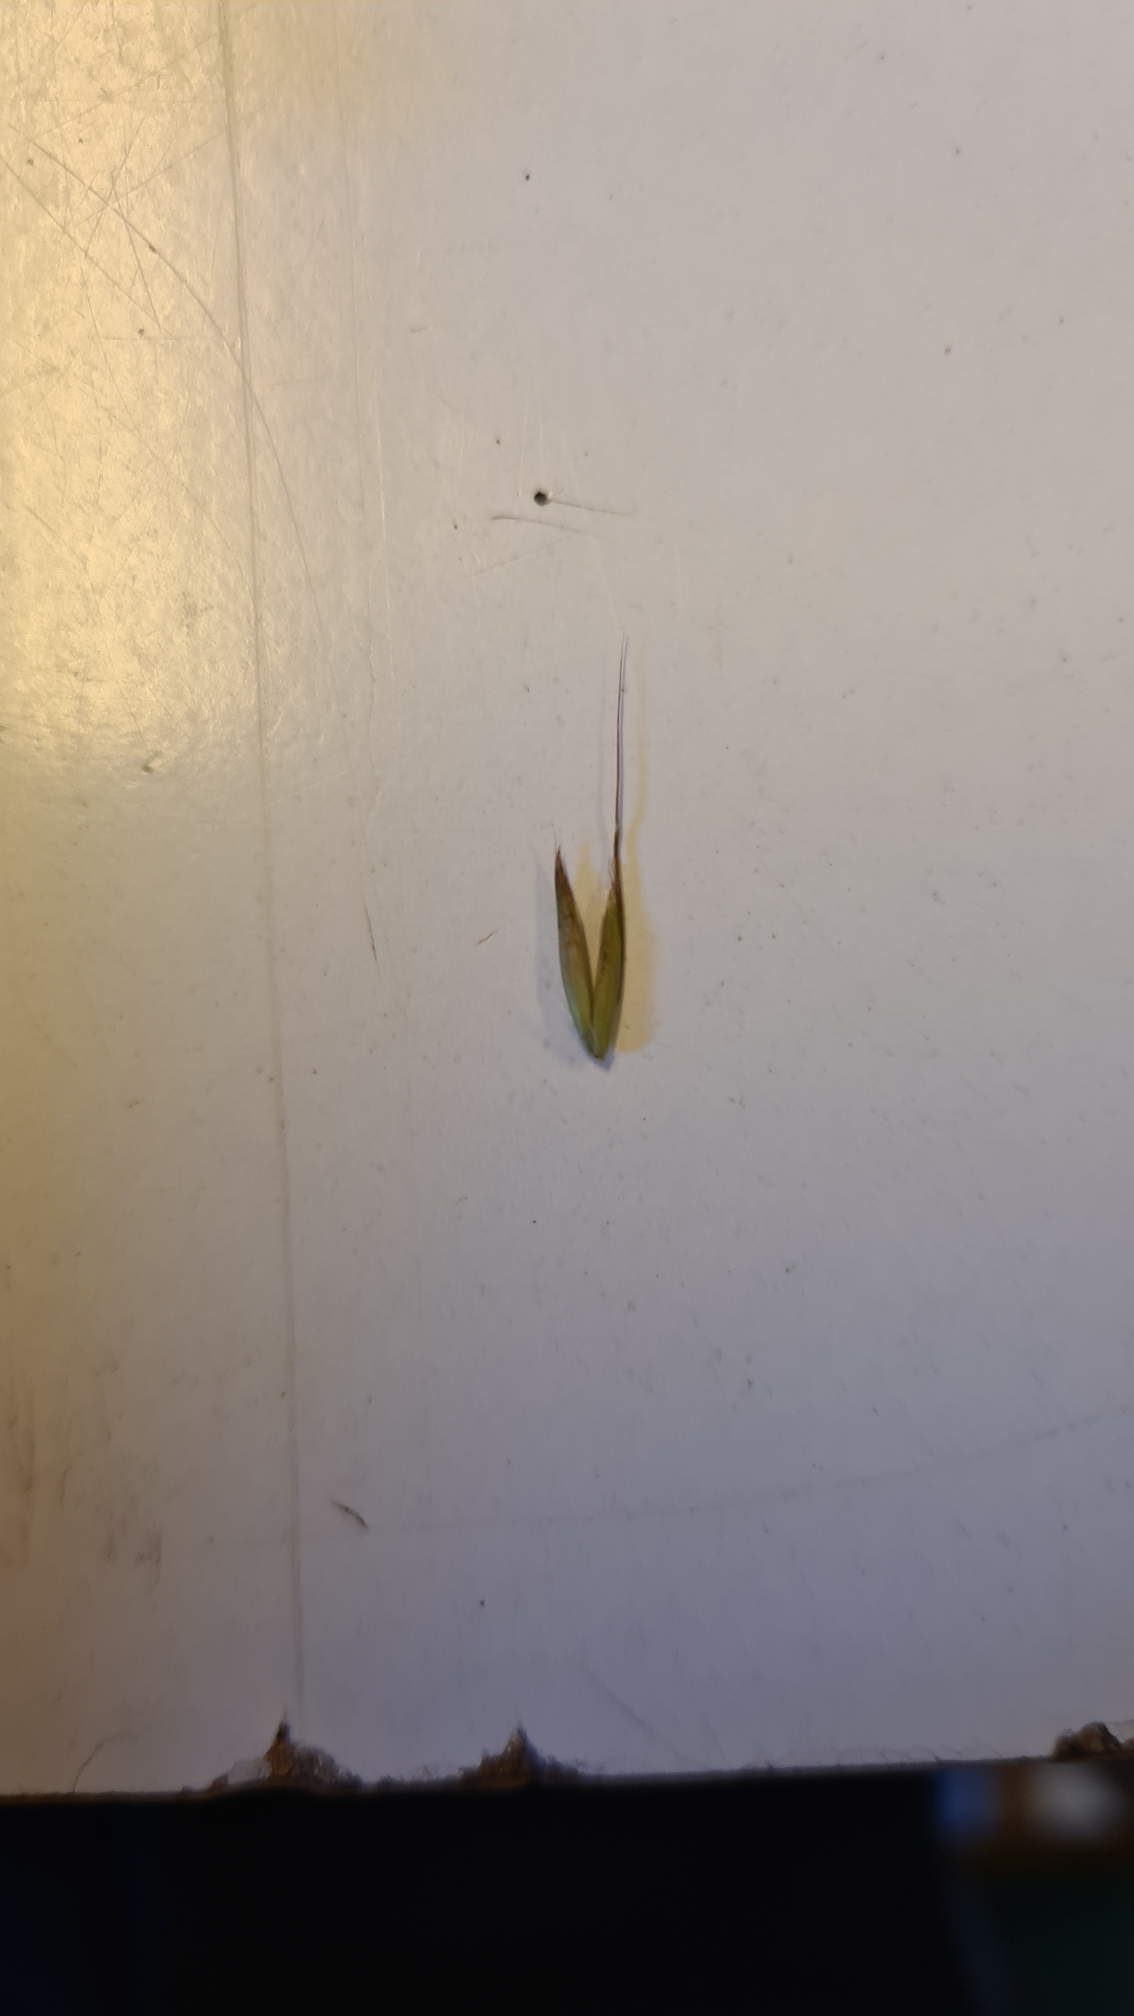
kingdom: Plantae
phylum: Tracheophyta
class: Liliopsida
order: Poales
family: Poaceae
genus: Arrhenatherum
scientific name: Arrhenatherum elatius
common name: Draphavre
